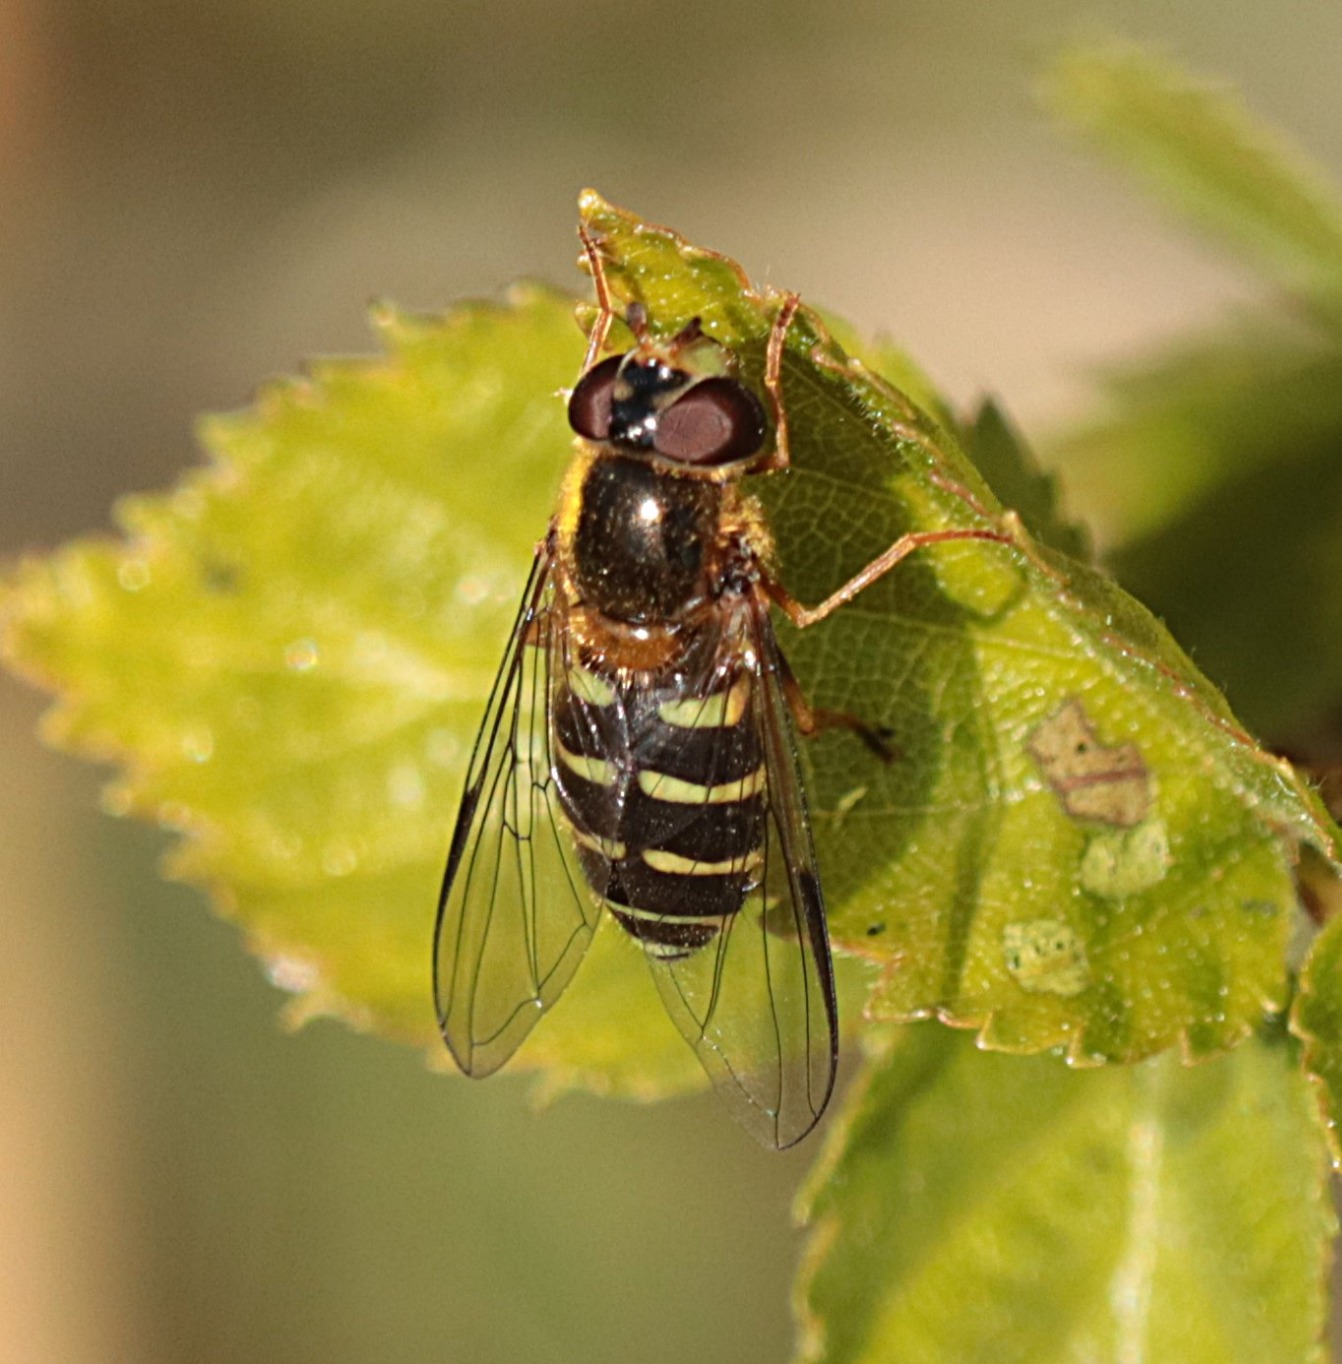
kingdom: Animalia
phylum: Arthropoda
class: Insecta
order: Diptera
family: Syrphidae
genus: Dasysyrphus
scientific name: Dasysyrphus venustus
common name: Smuk skovsvirreflue
